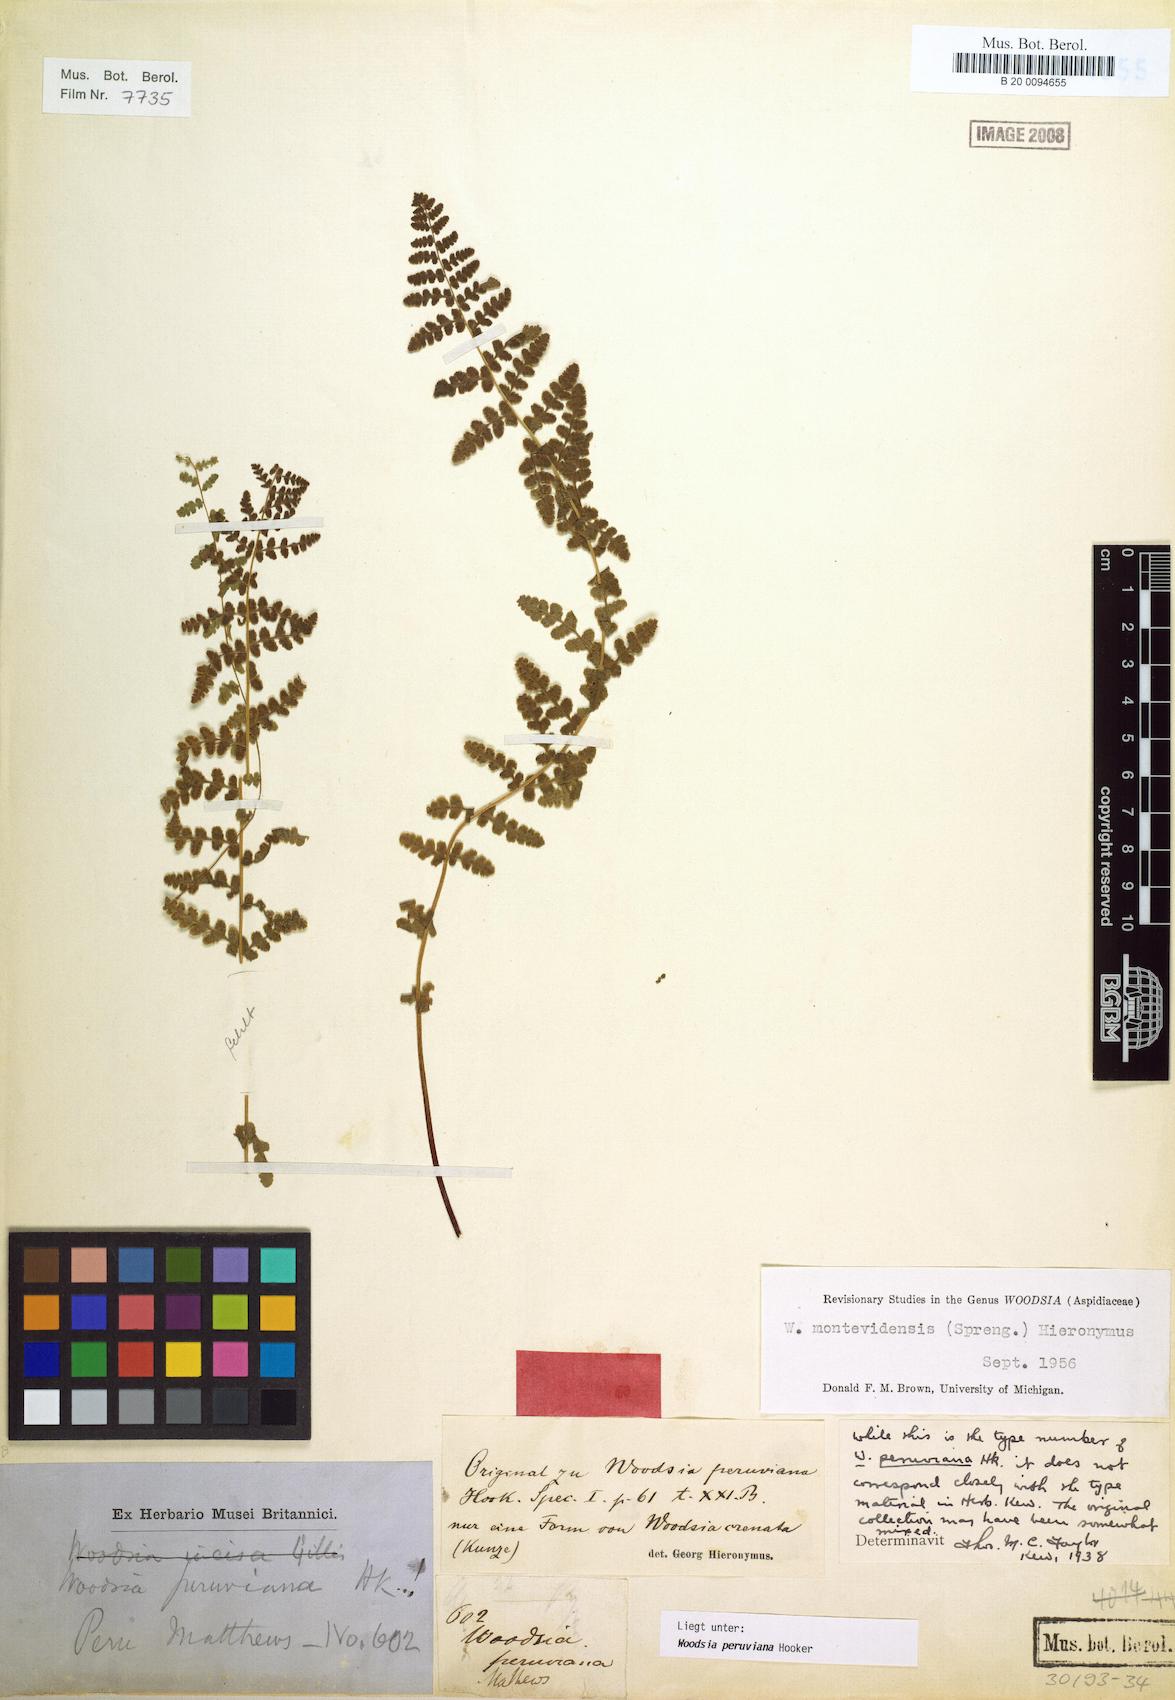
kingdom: Plantae
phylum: Tracheophyta
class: Polypodiopsida
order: Polypodiales
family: Woodsiaceae
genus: Physematium
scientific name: Physematium montevidense
